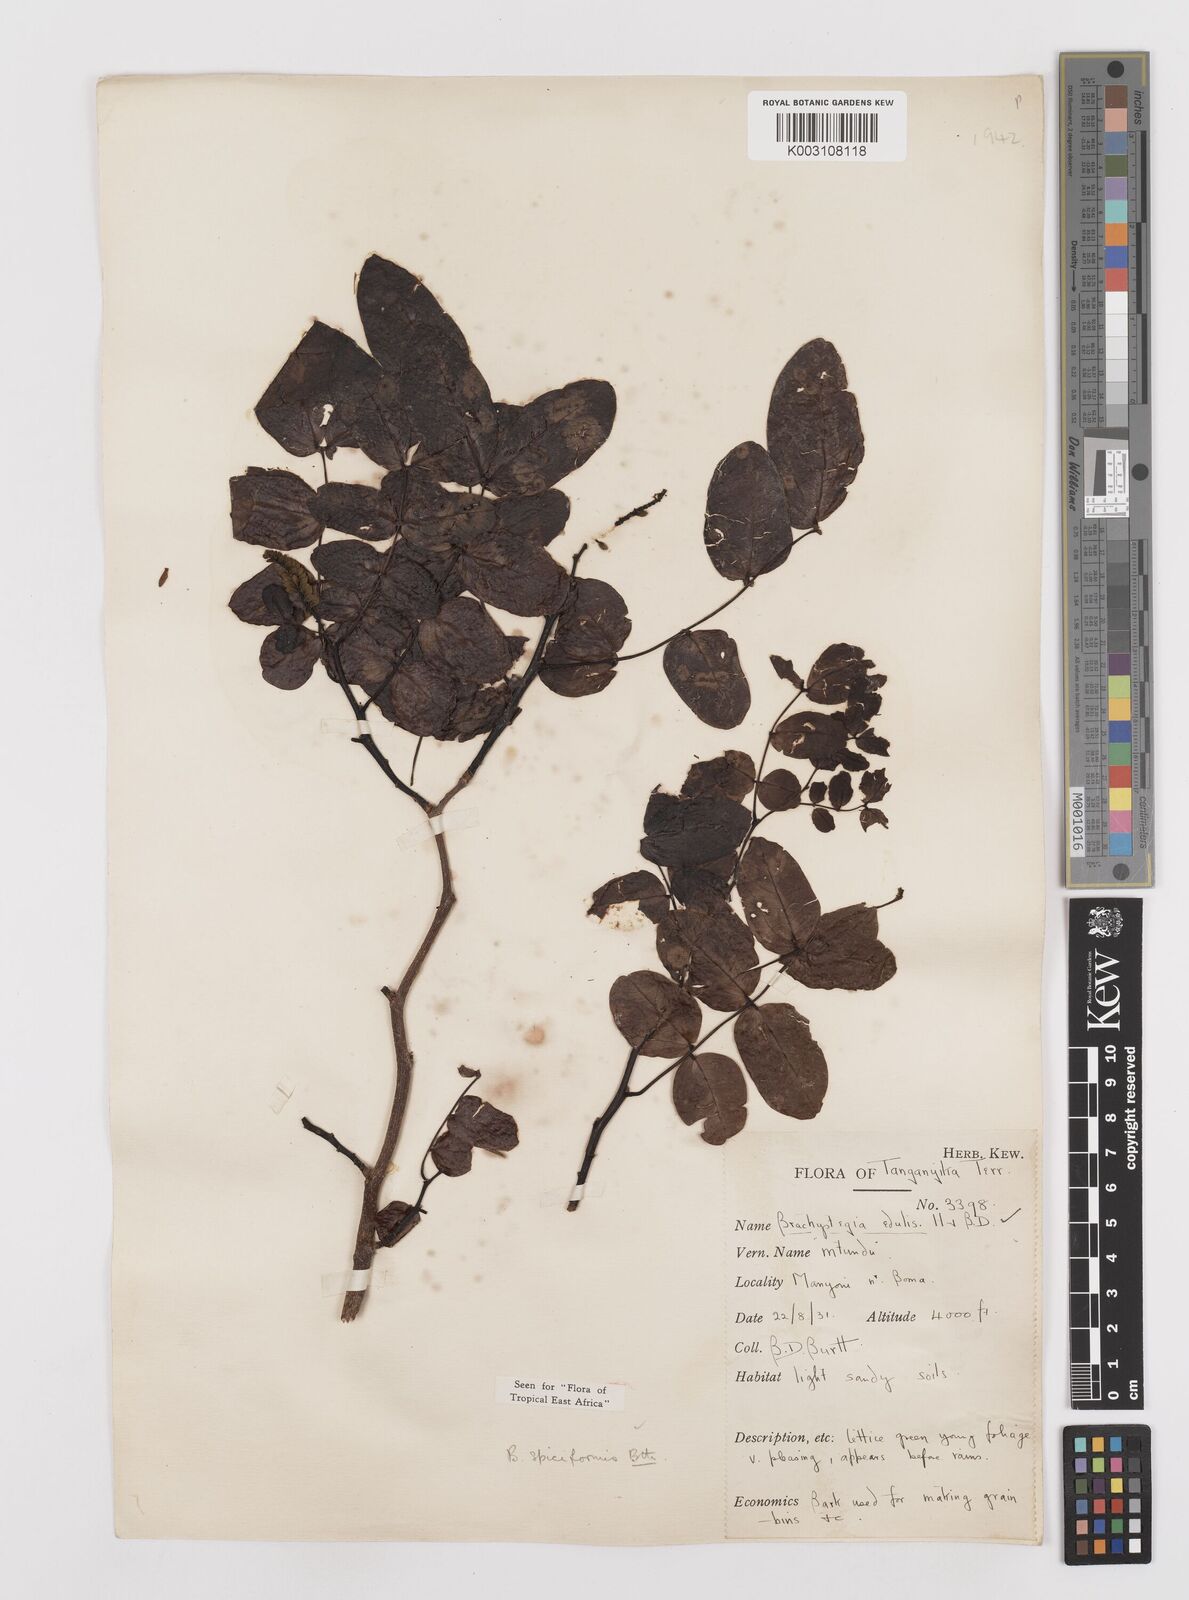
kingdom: Plantae
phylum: Tracheophyta
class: Magnoliopsida
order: Fabales
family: Fabaceae
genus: Brachystegia
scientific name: Brachystegia spiciformis
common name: Zebrawood
